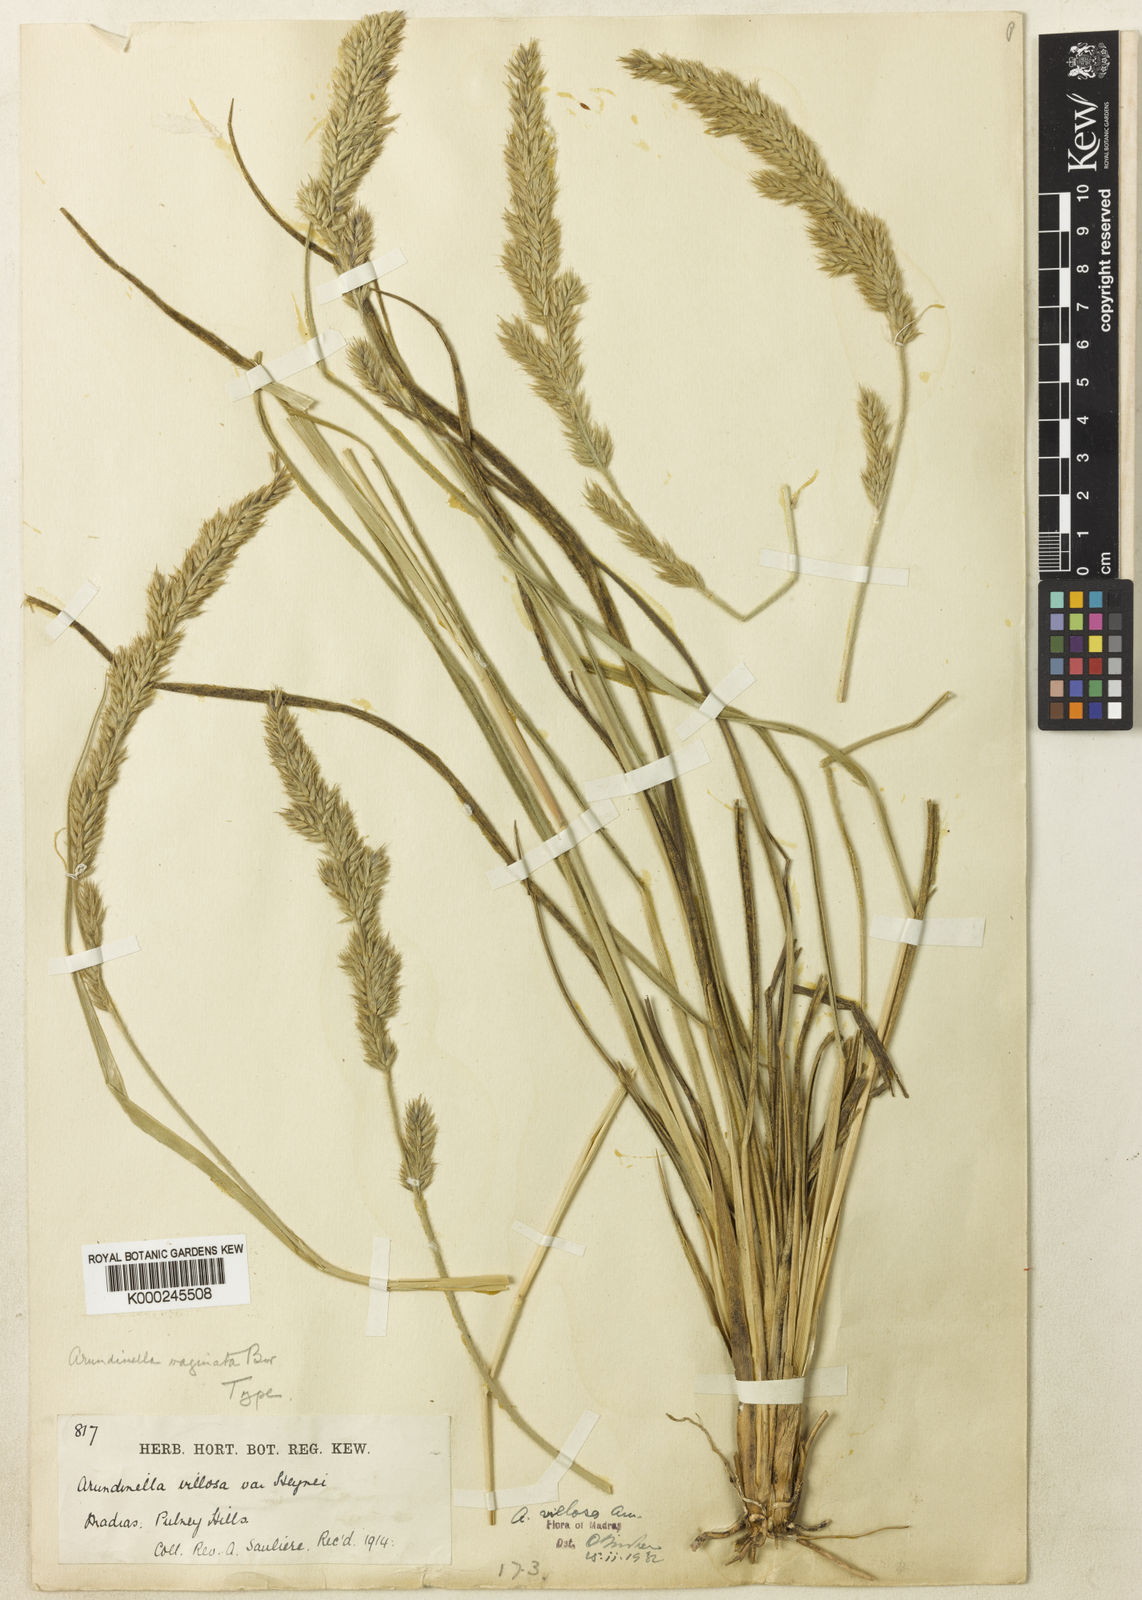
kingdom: Plantae
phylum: Tracheophyta
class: Liliopsida
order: Poales
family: Poaceae
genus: Arundinella
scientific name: Arundinella vaginata
